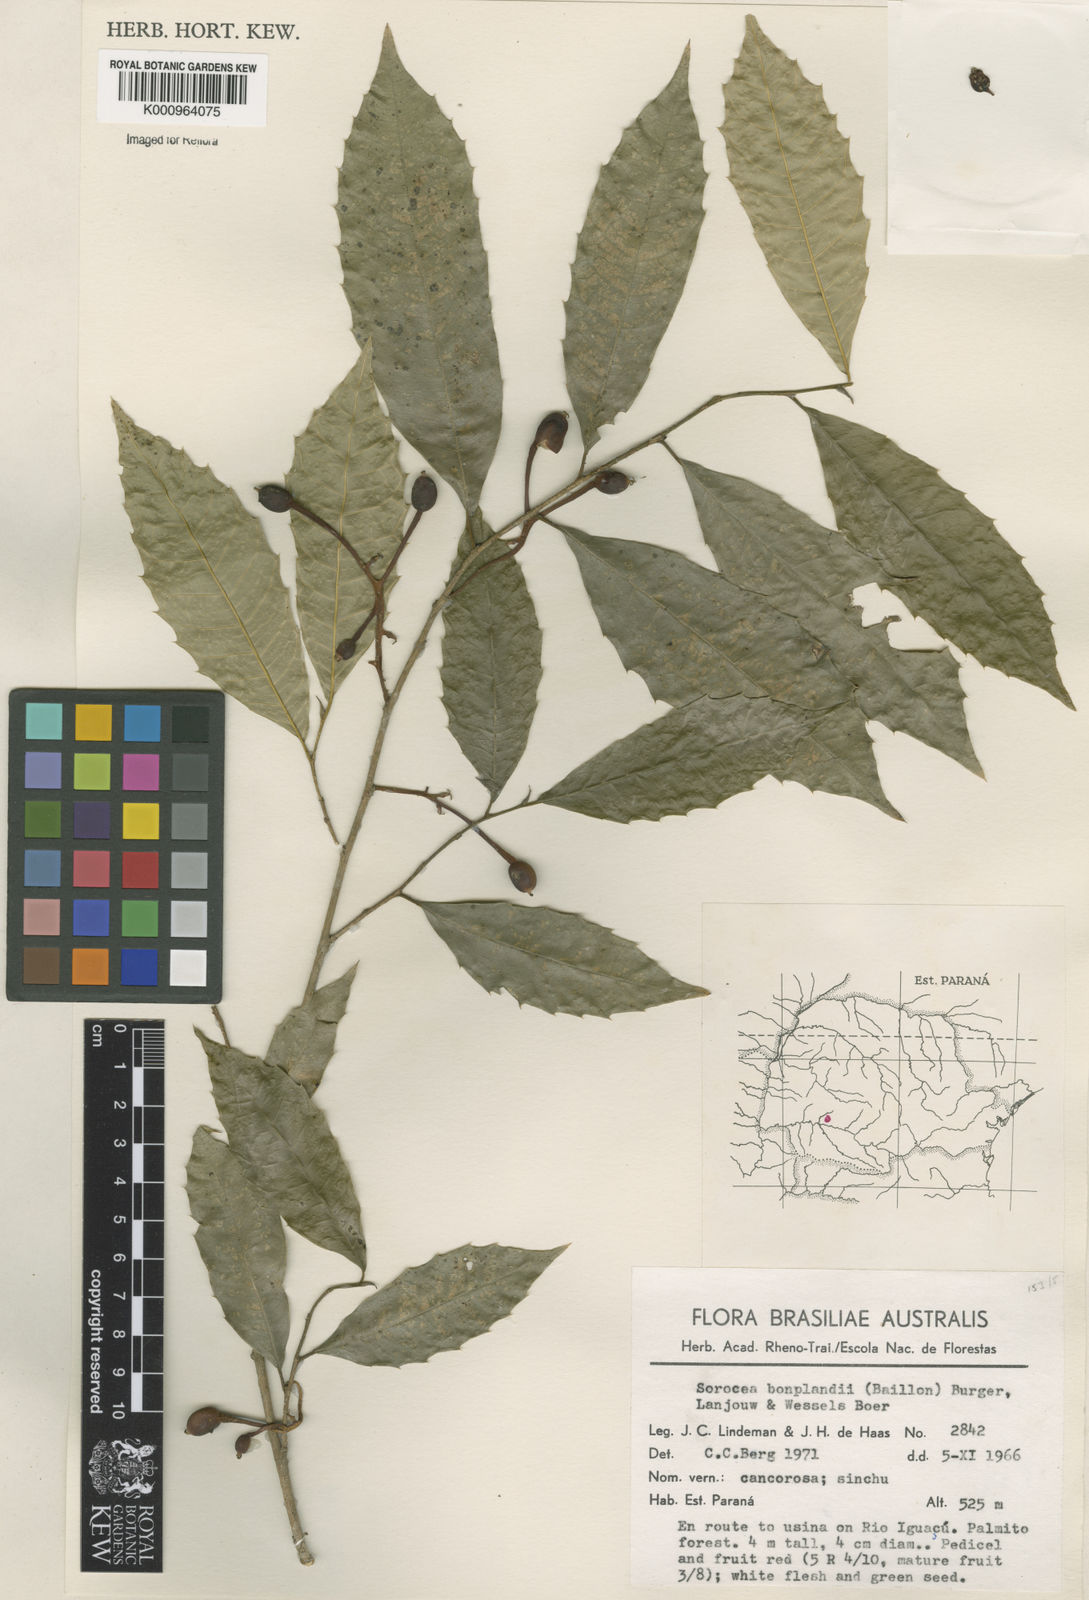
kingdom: Plantae
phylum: Tracheophyta
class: Magnoliopsida
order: Rosales
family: Moraceae
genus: Sorocea
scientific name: Sorocea
